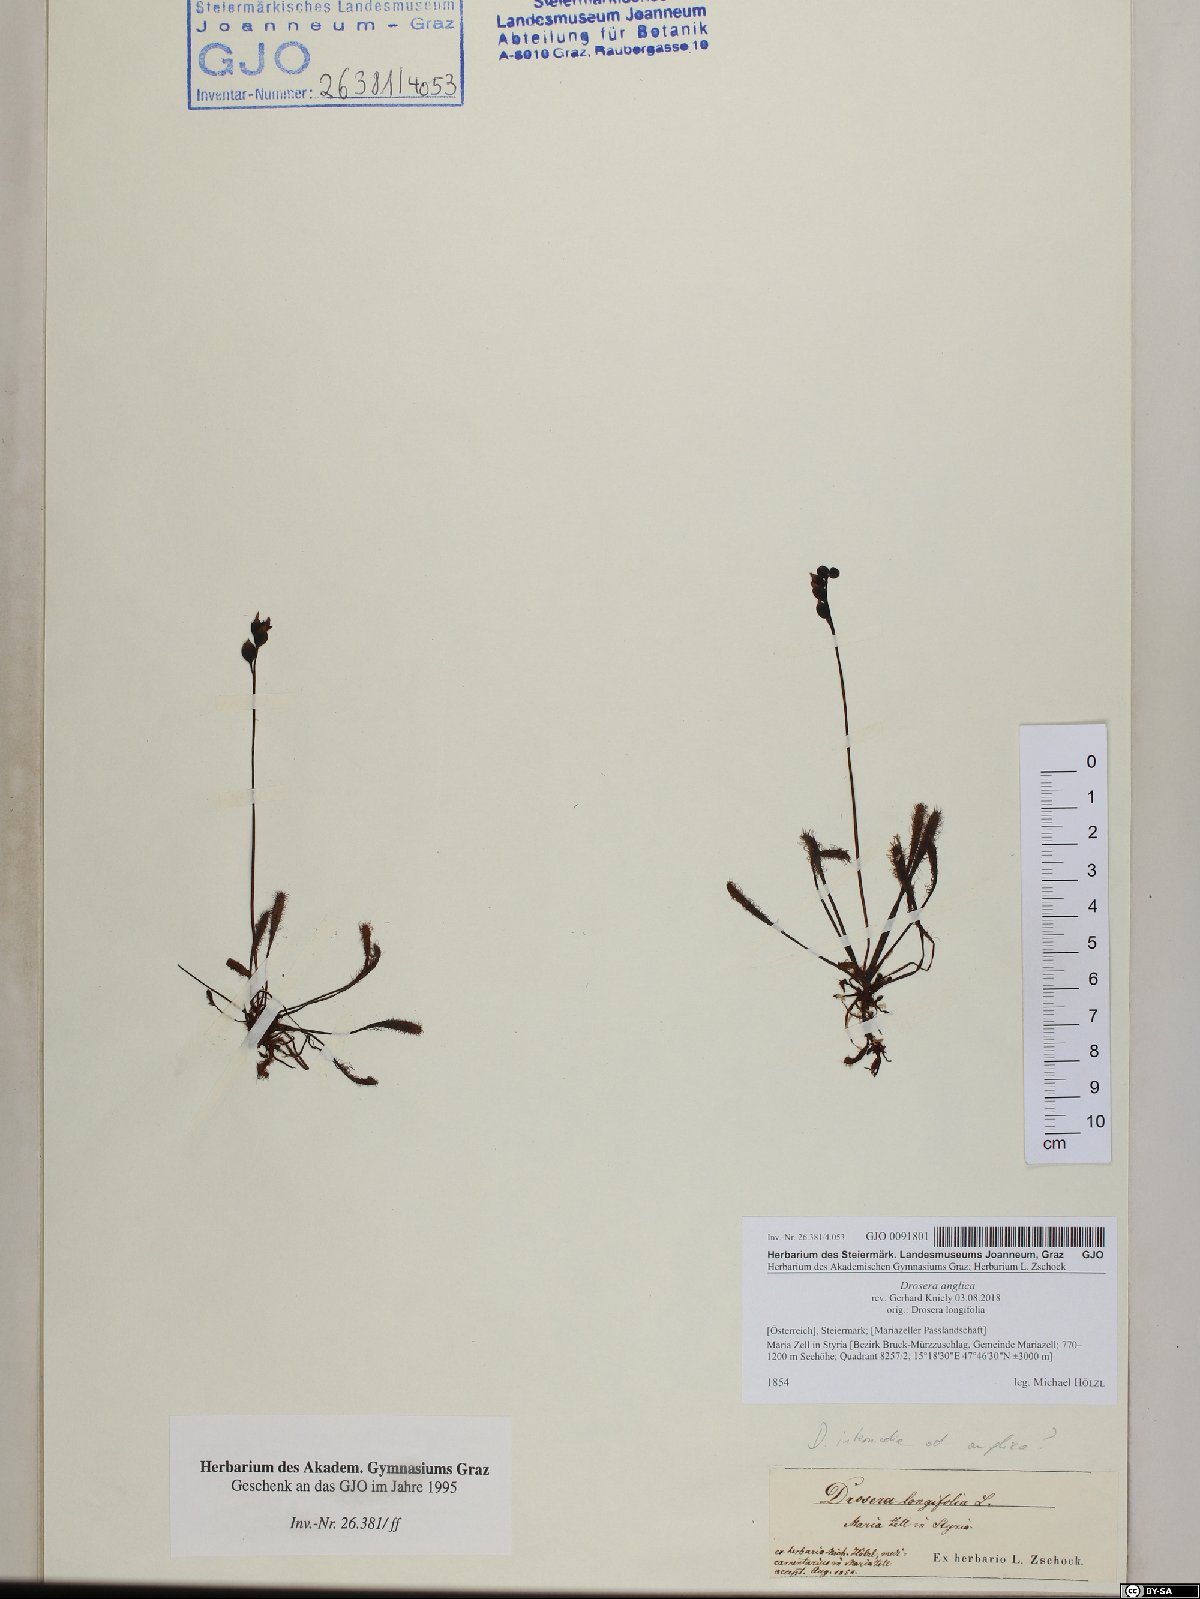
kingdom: Plantae
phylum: Tracheophyta
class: Magnoliopsida
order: Caryophyllales
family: Droseraceae
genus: Drosera
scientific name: Drosera anglica
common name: Great sundew
